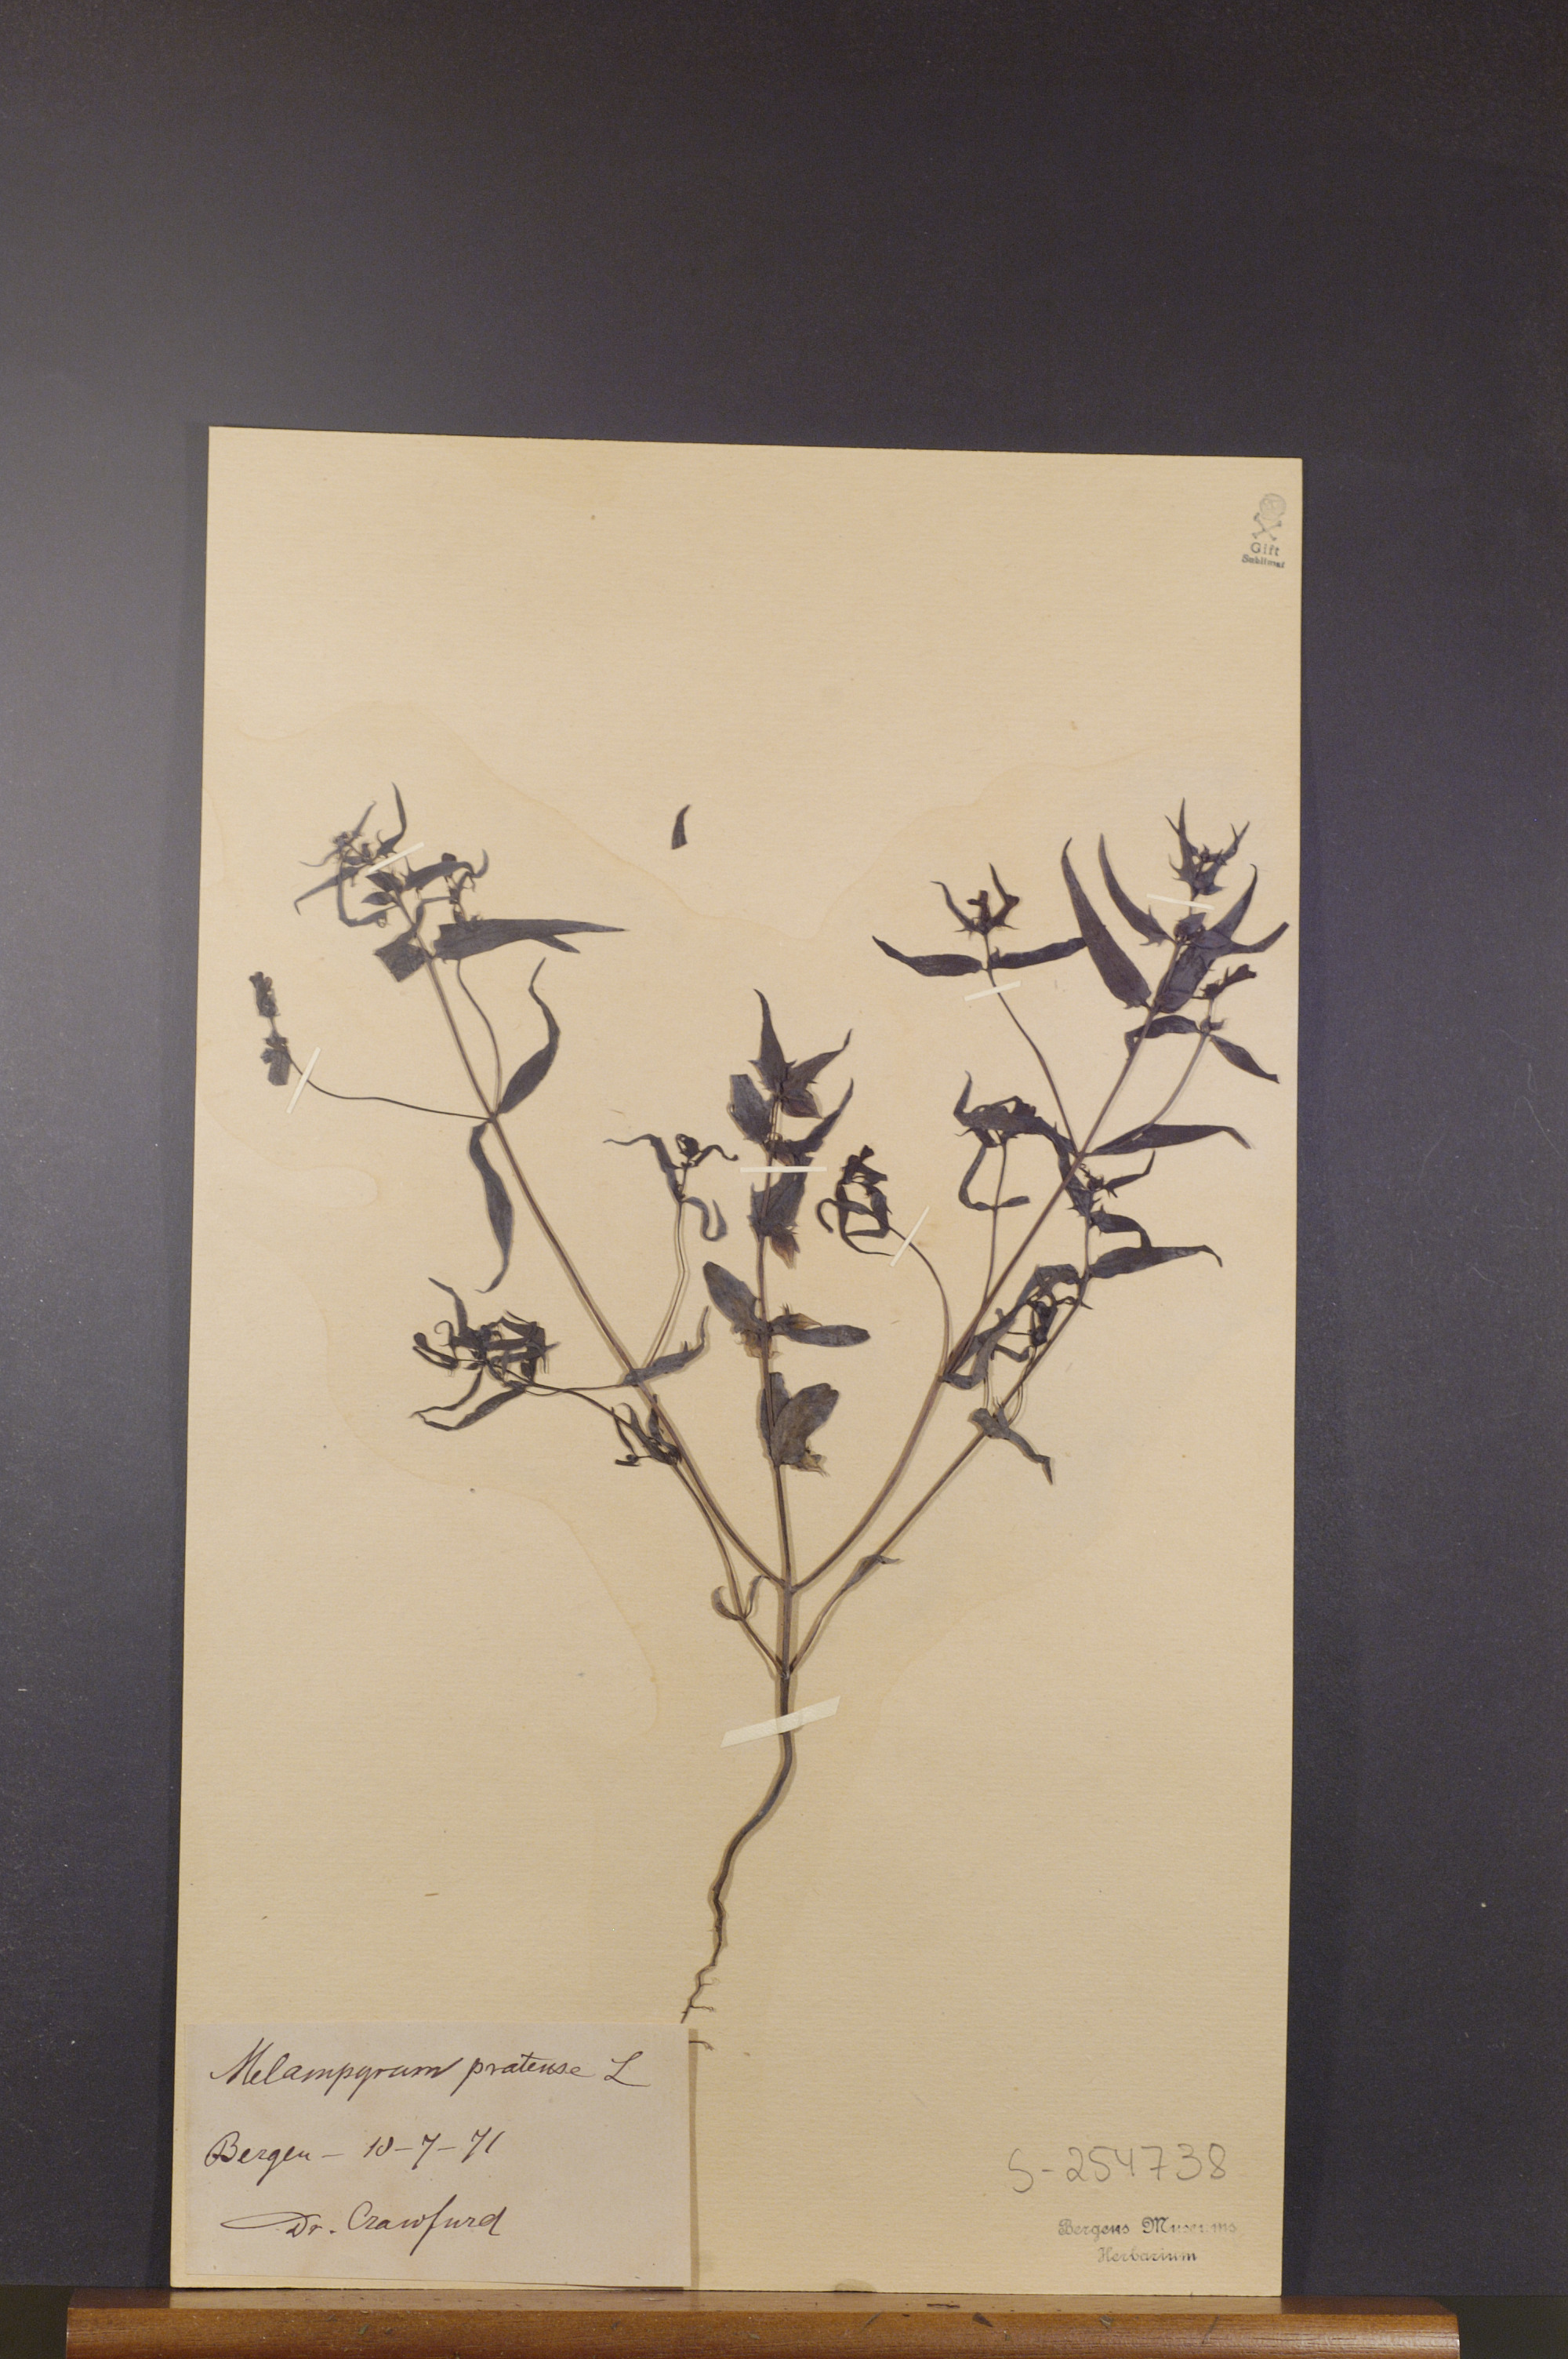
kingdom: Plantae
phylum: Tracheophyta
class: Magnoliopsida
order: Lamiales
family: Orobanchaceae
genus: Melampyrum
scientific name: Melampyrum pratense
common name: Common cow-wheat
